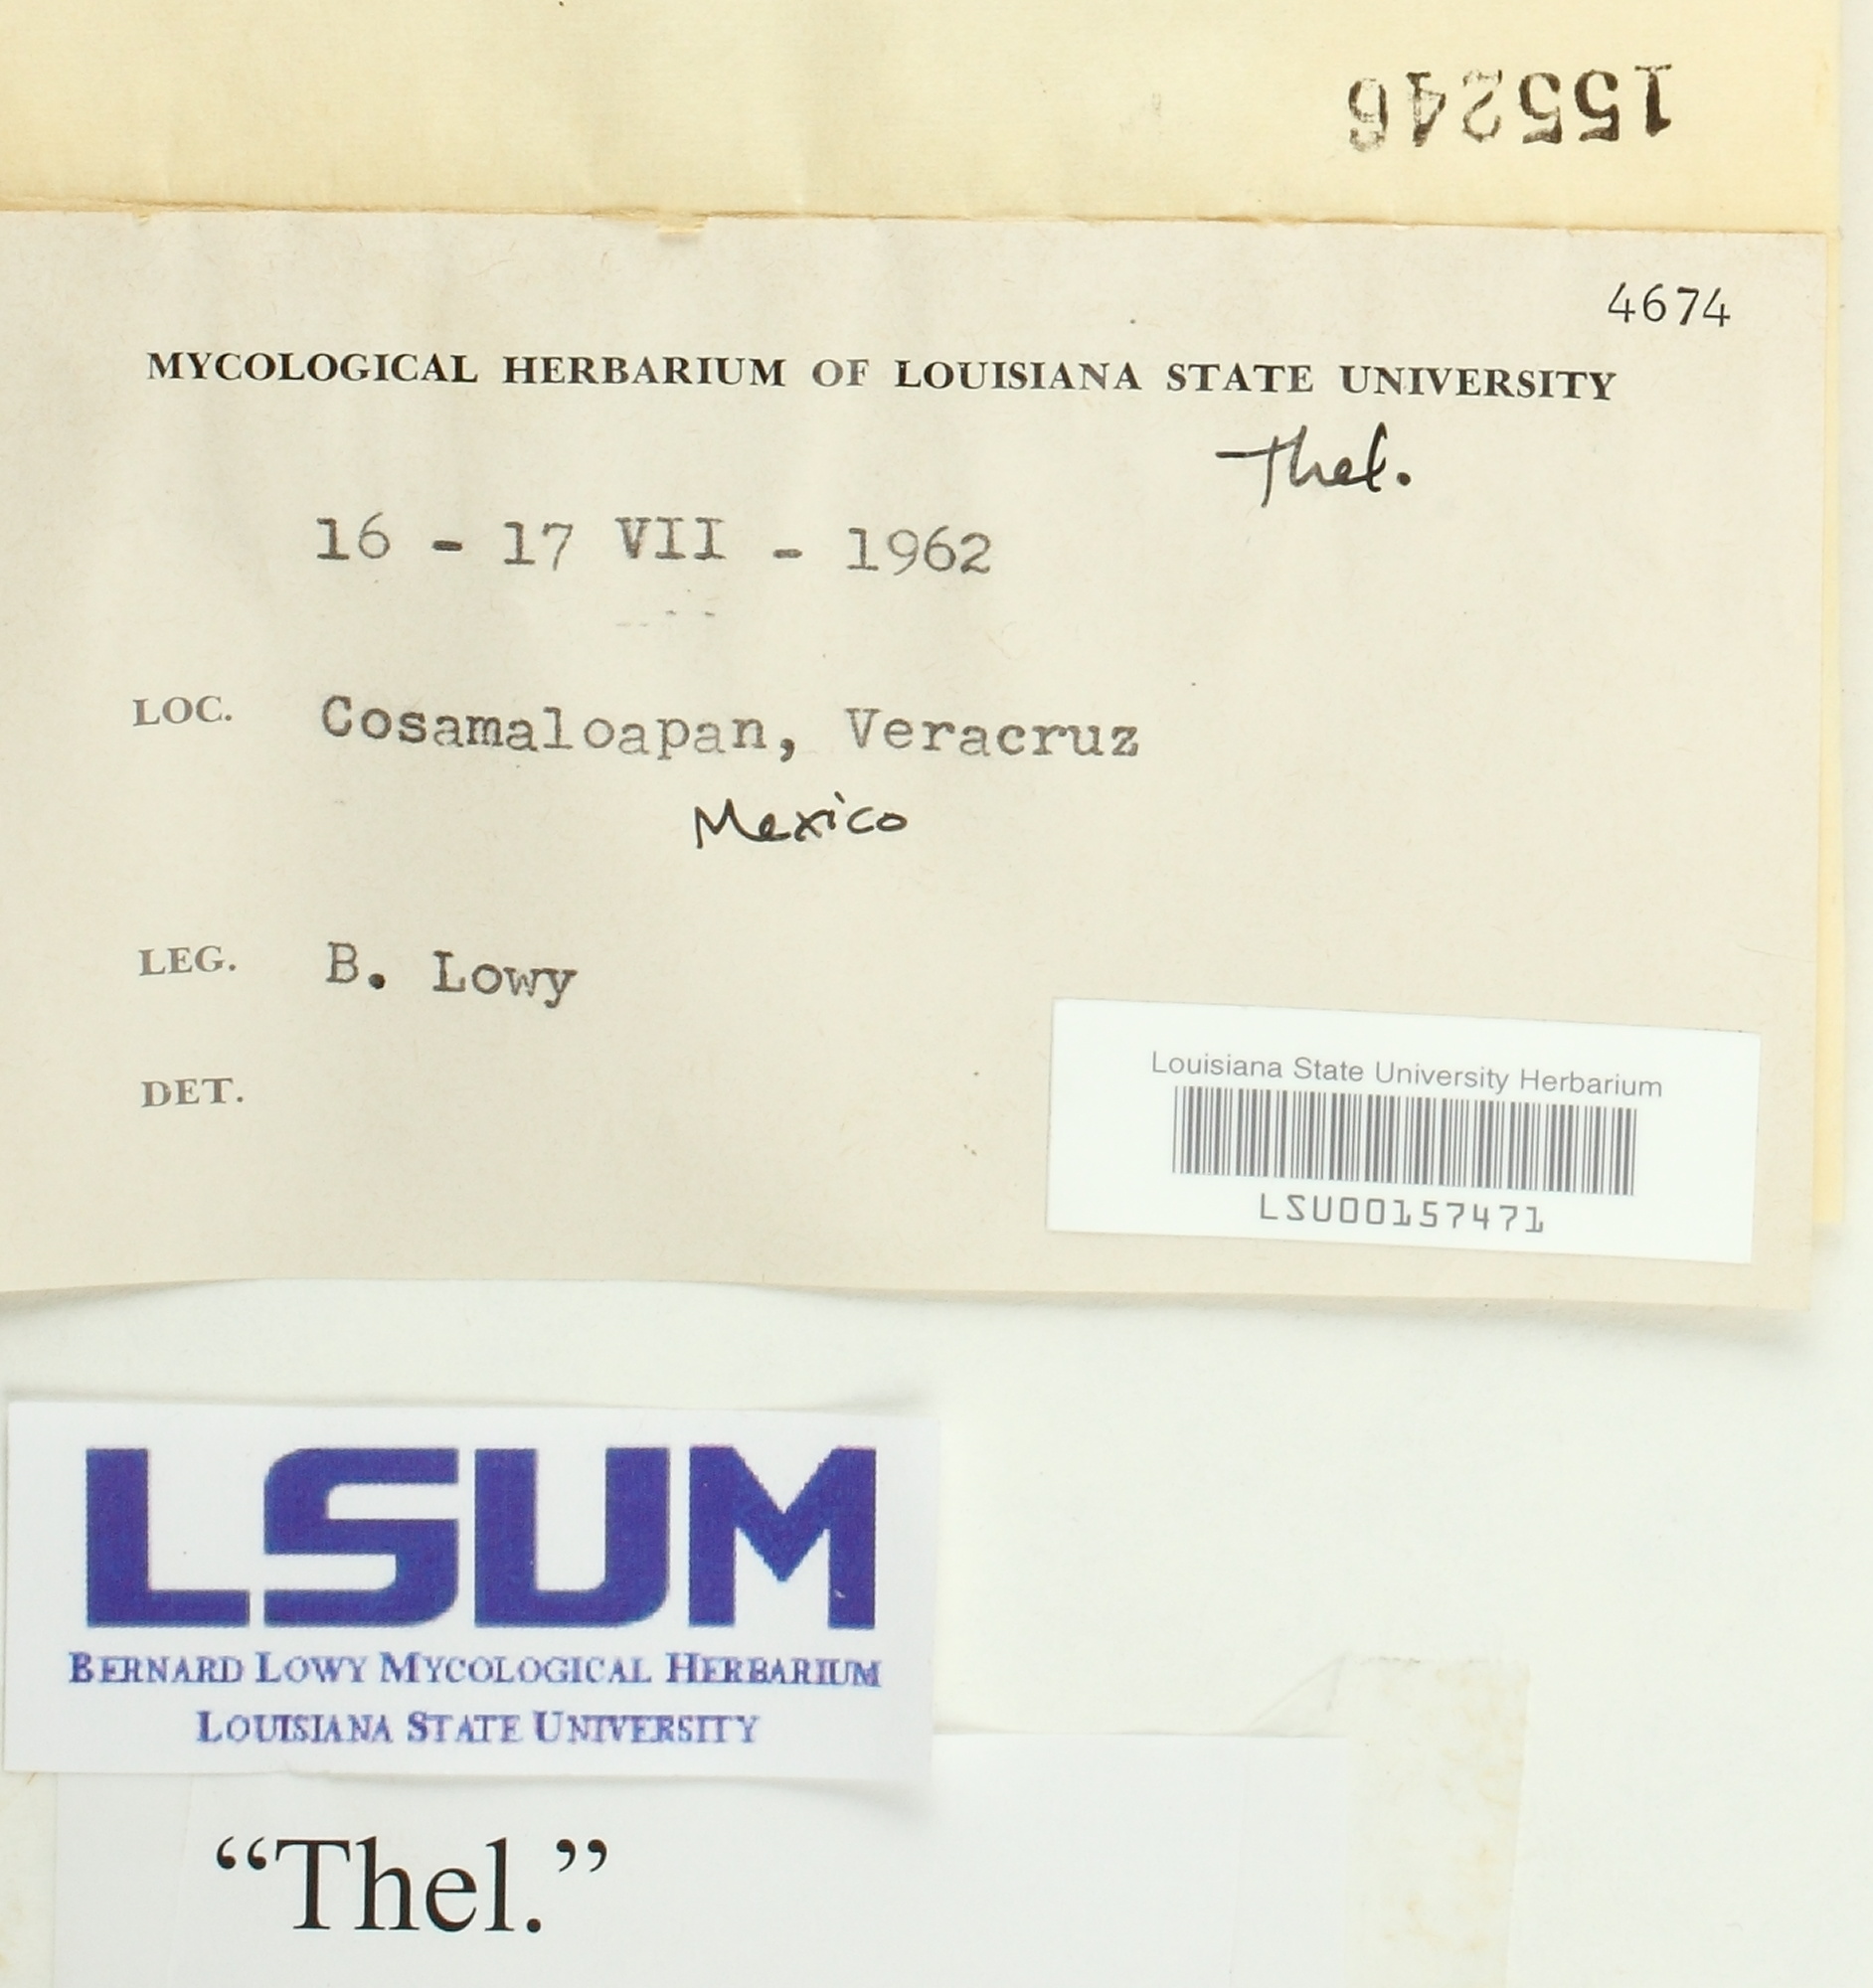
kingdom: Fungi
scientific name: Fungi
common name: Fungi
